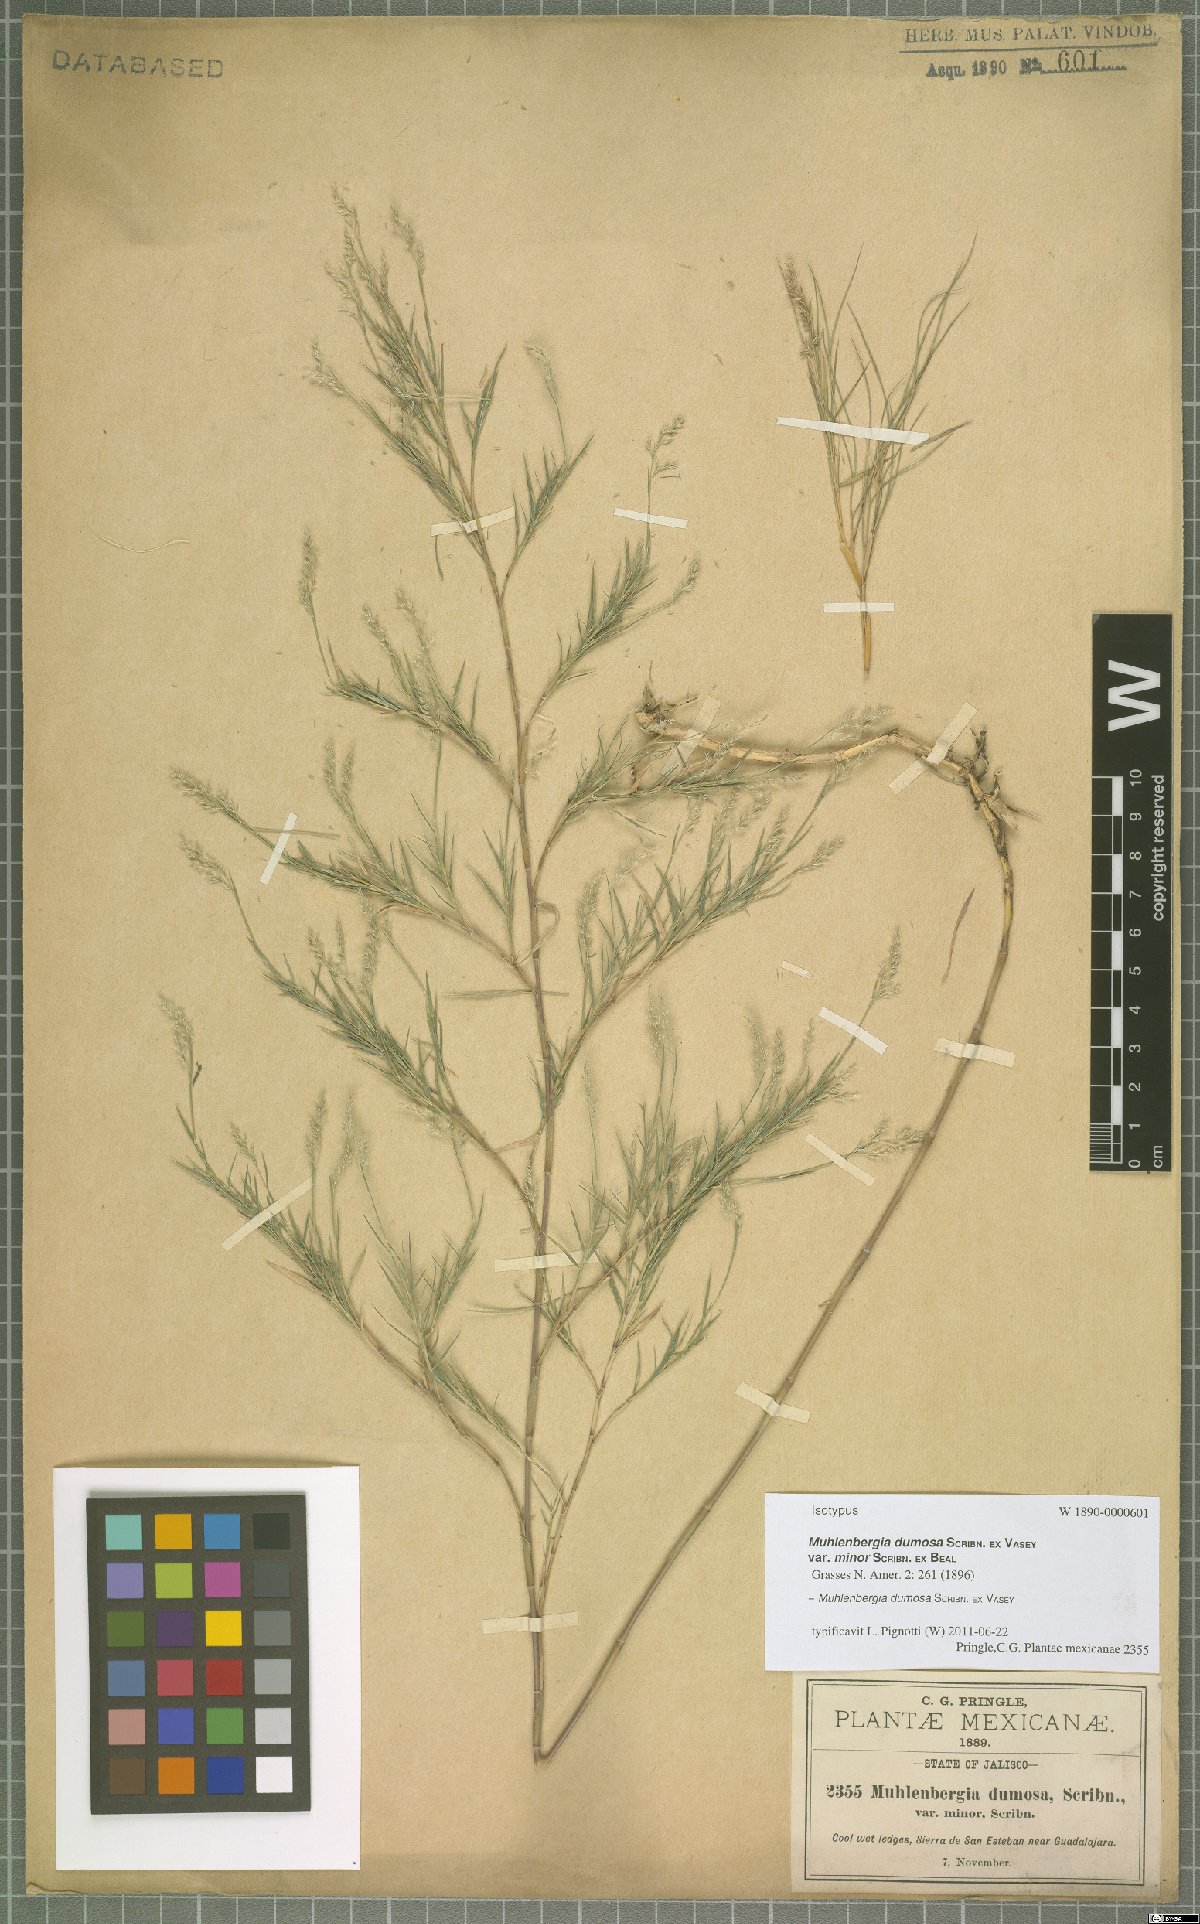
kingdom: Plantae
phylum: Tracheophyta
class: Liliopsida
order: Poales
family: Poaceae
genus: Muhlenbergia
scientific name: Muhlenbergia dumosa
